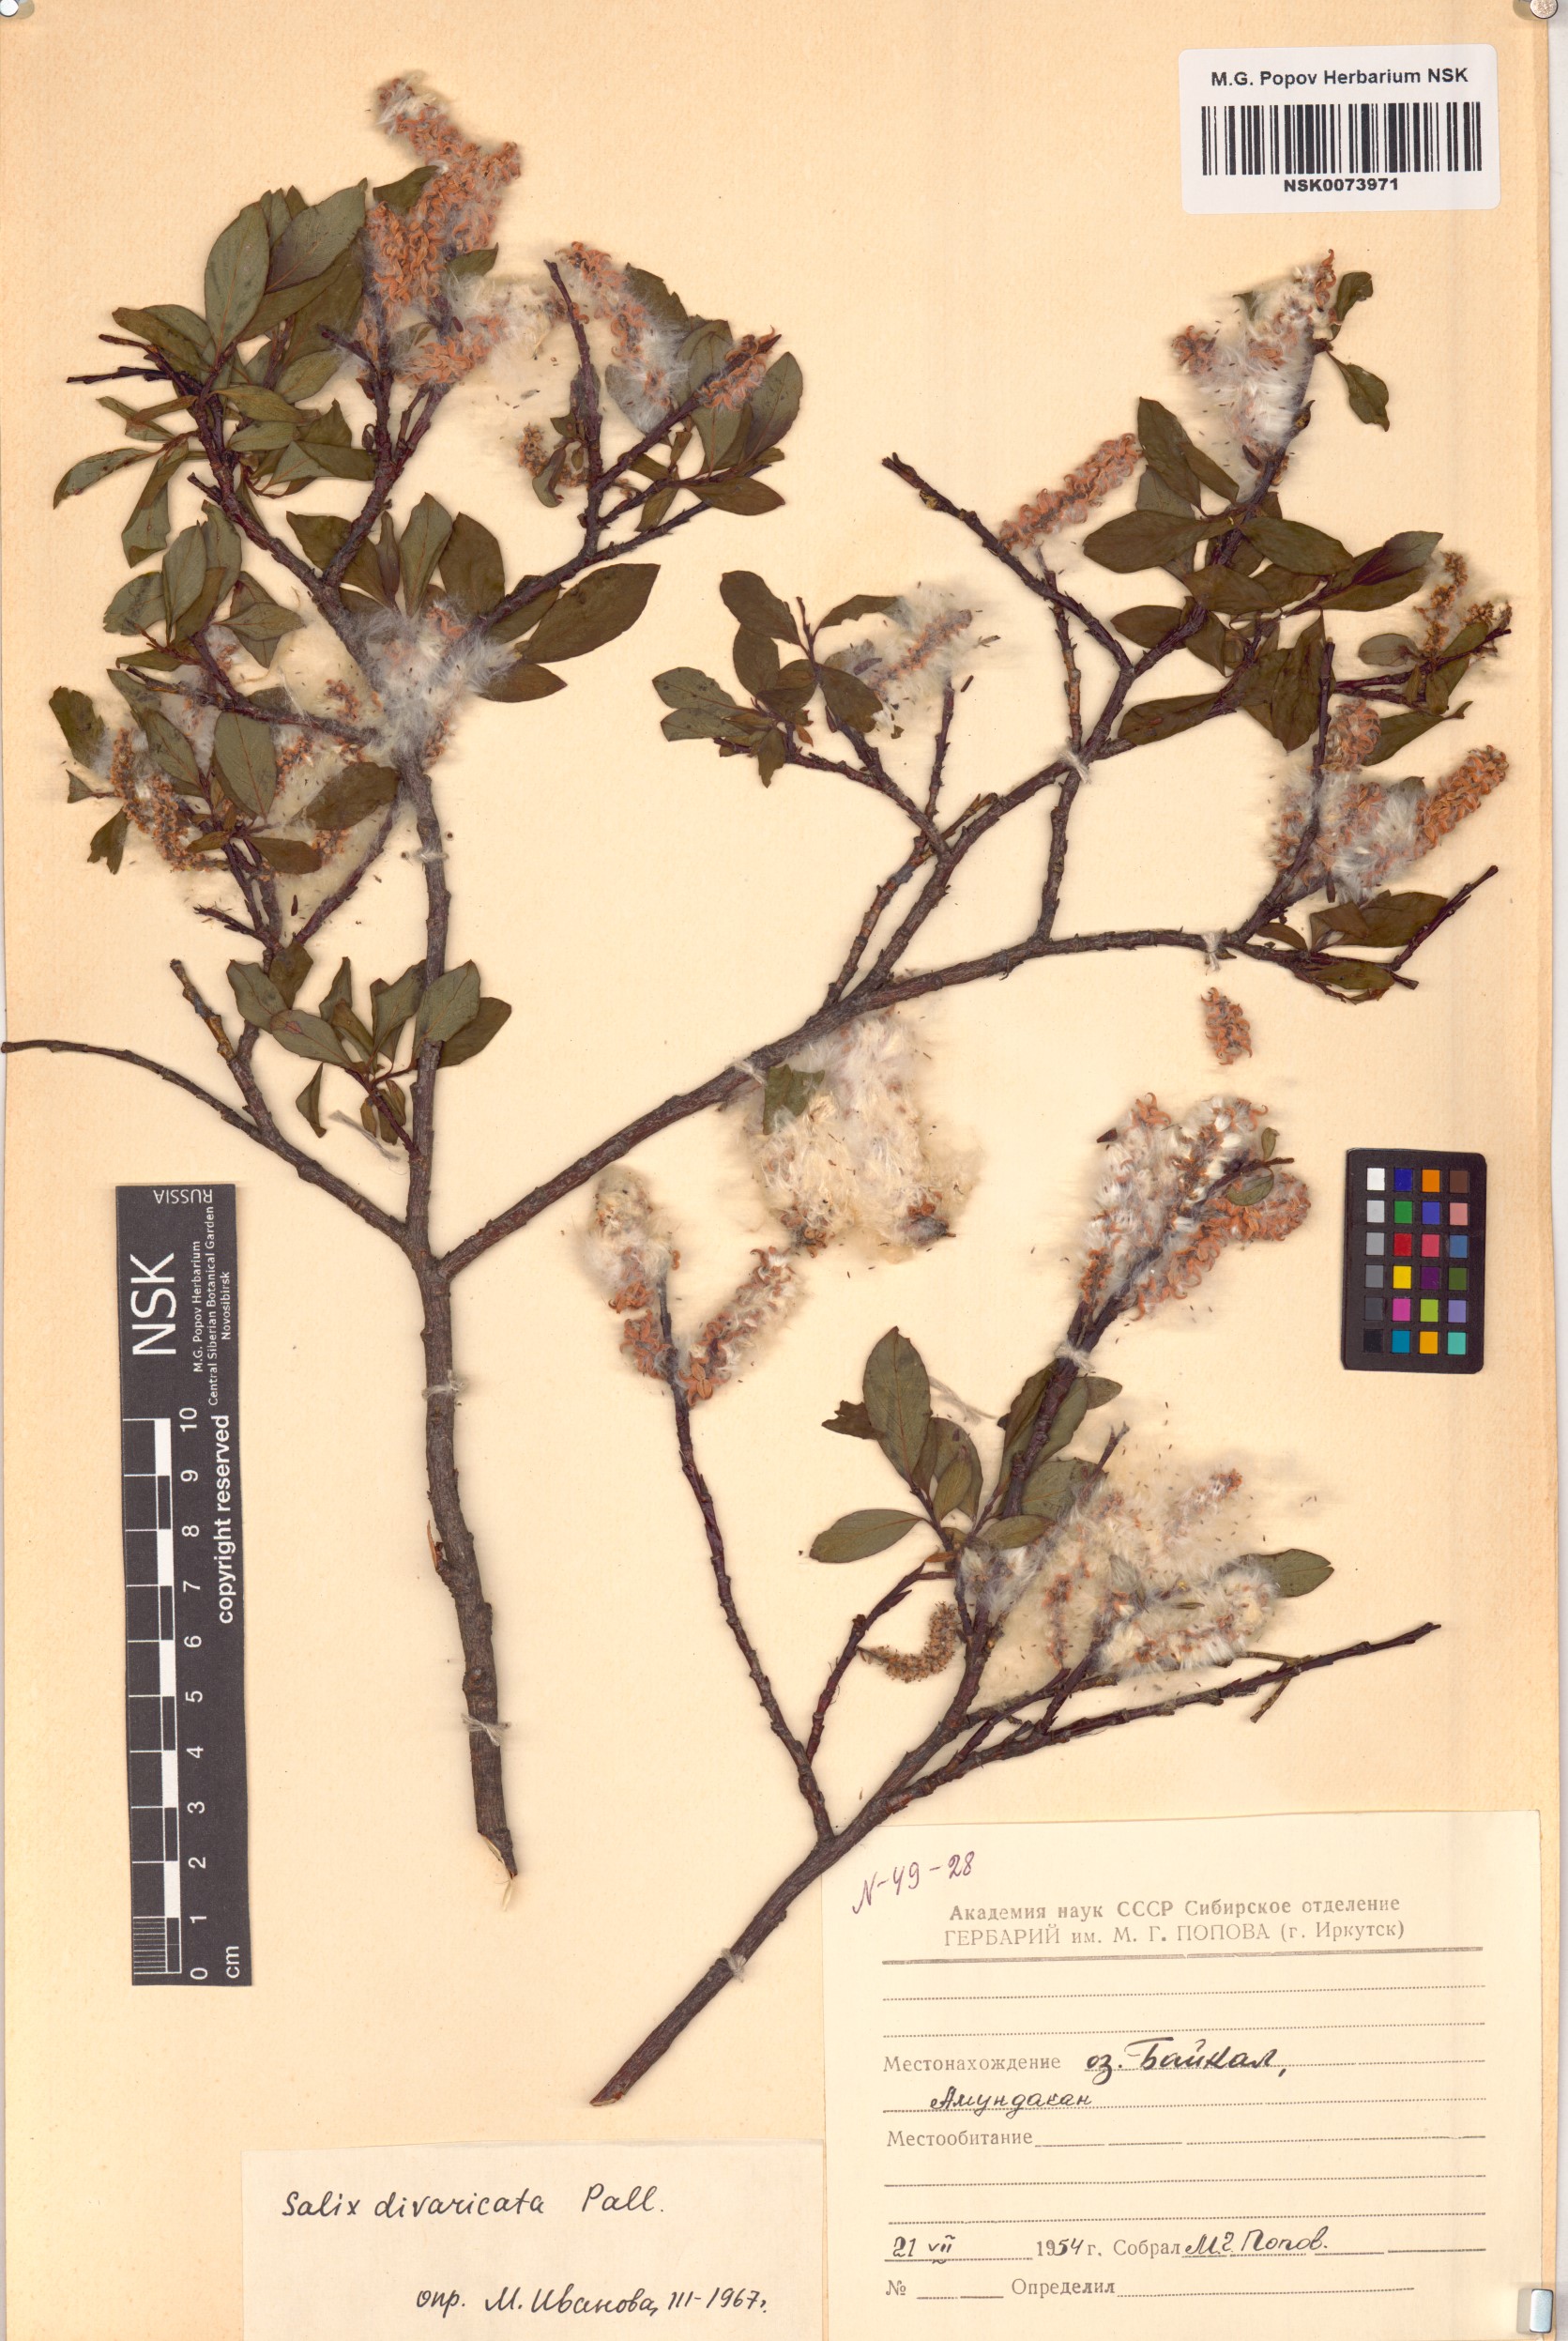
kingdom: Plantae
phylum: Tracheophyta
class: Magnoliopsida
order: Malpighiales
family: Salicaceae
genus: Salix
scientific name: Salix divaricata
